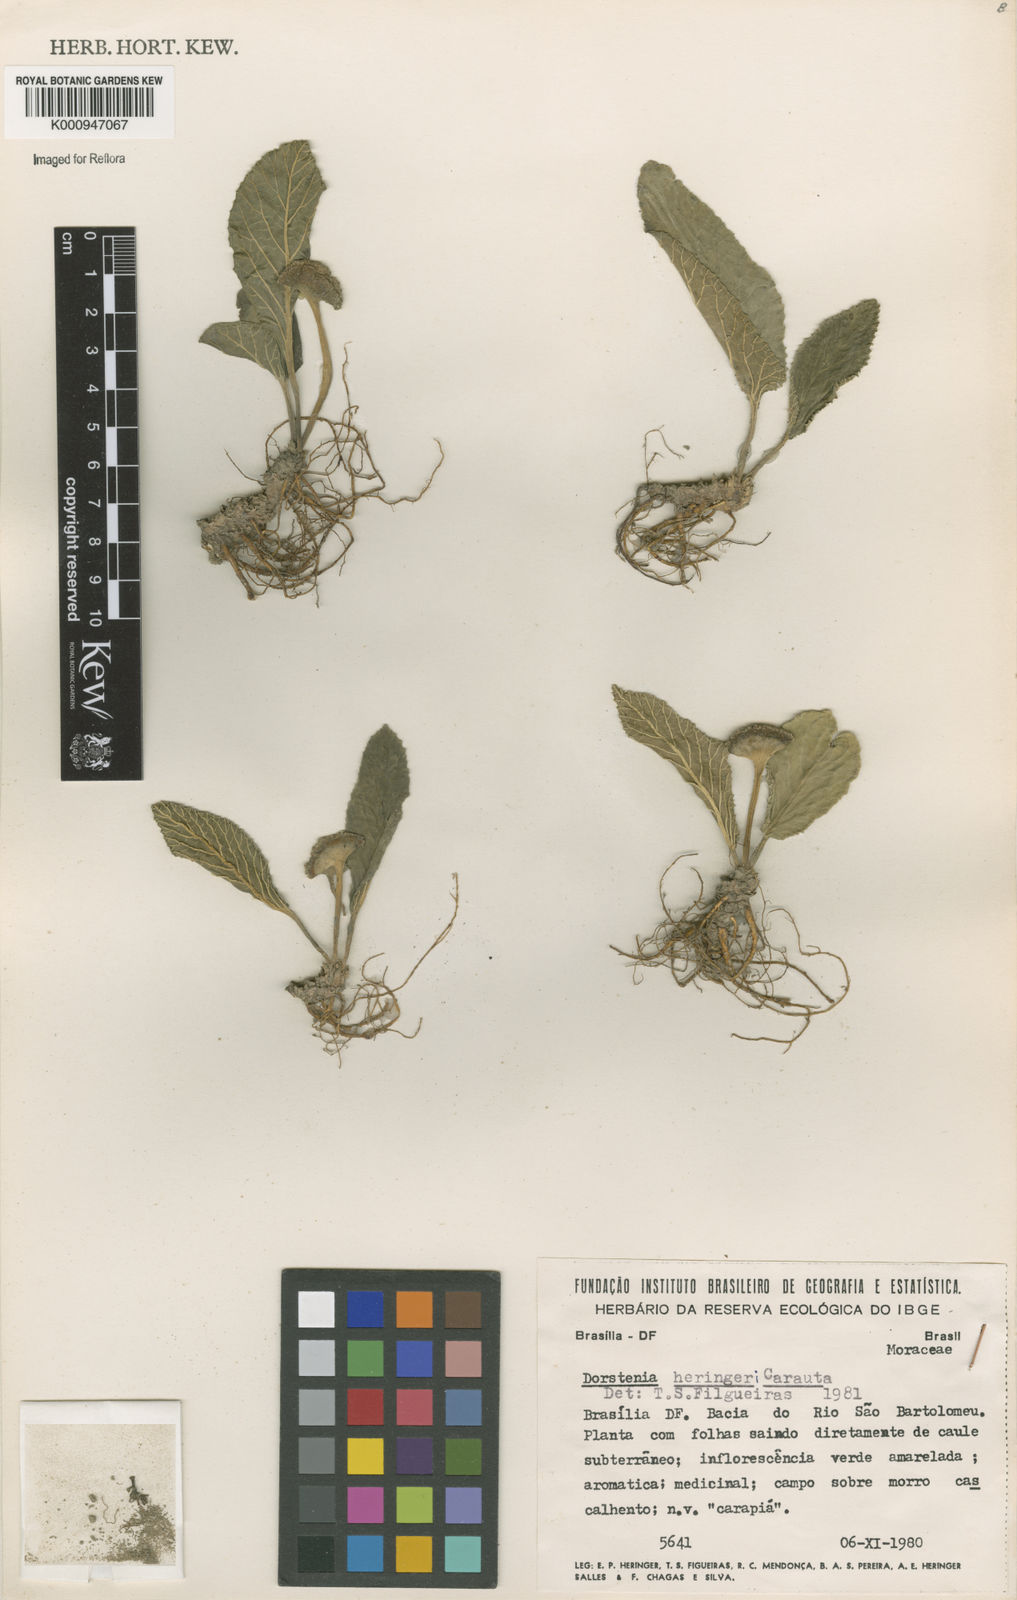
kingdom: Plantae
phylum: Tracheophyta
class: Magnoliopsida
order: Rosales
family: Moraceae
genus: Dorstenia
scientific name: Dorstenia brasiliensis
